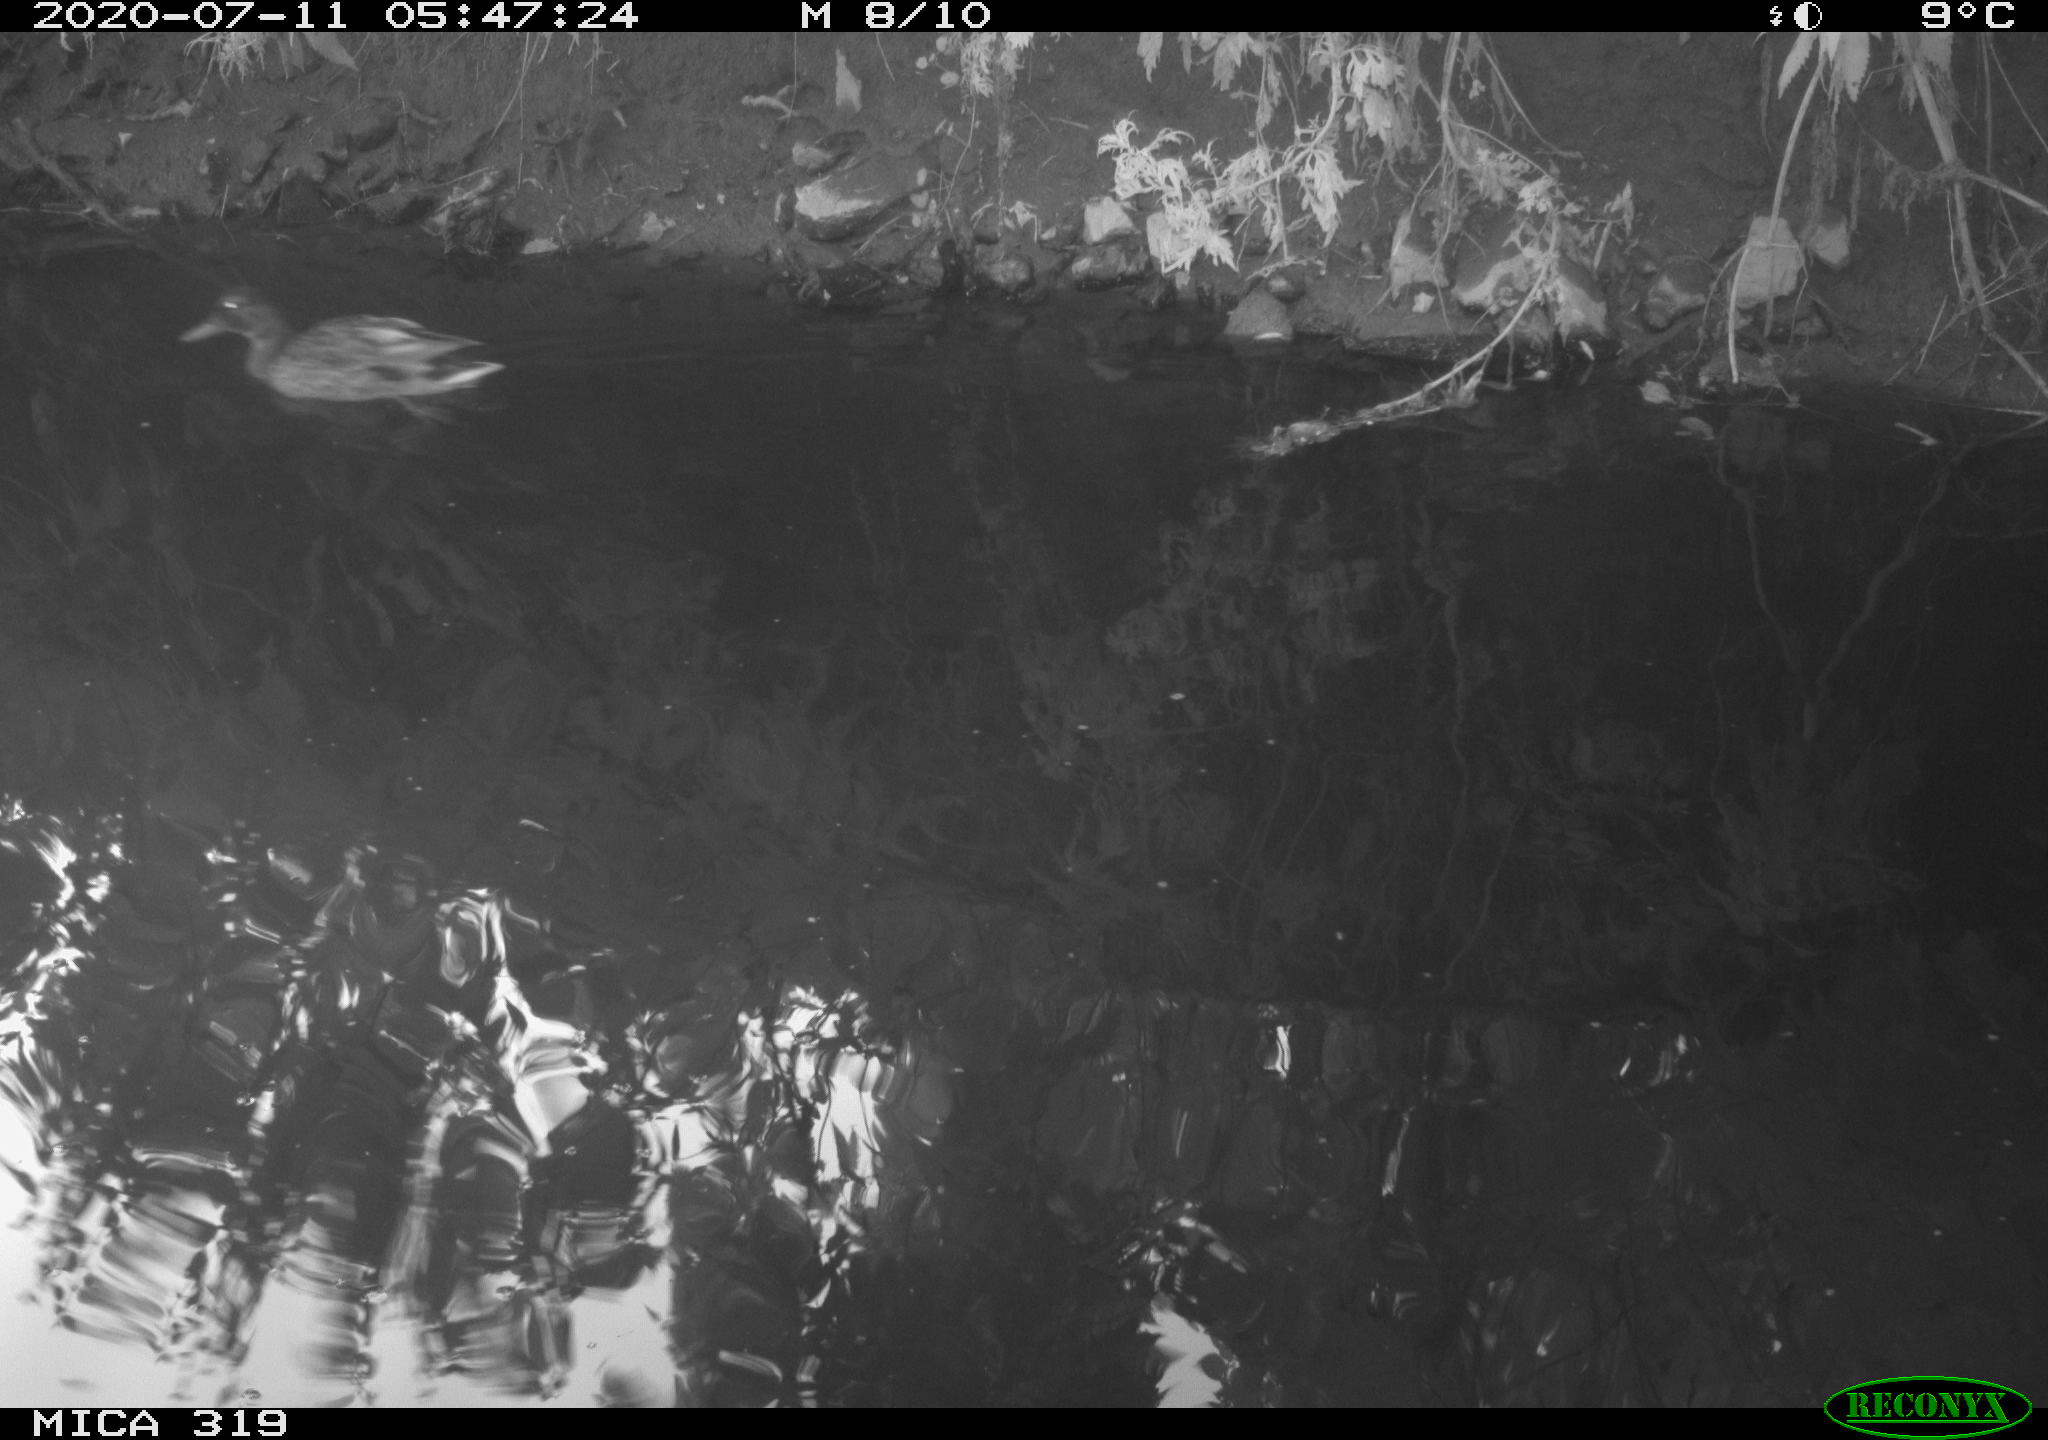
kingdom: Animalia
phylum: Chordata
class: Aves
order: Anseriformes
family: Anatidae
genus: Anas
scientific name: Anas platyrhynchos
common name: Mallard
